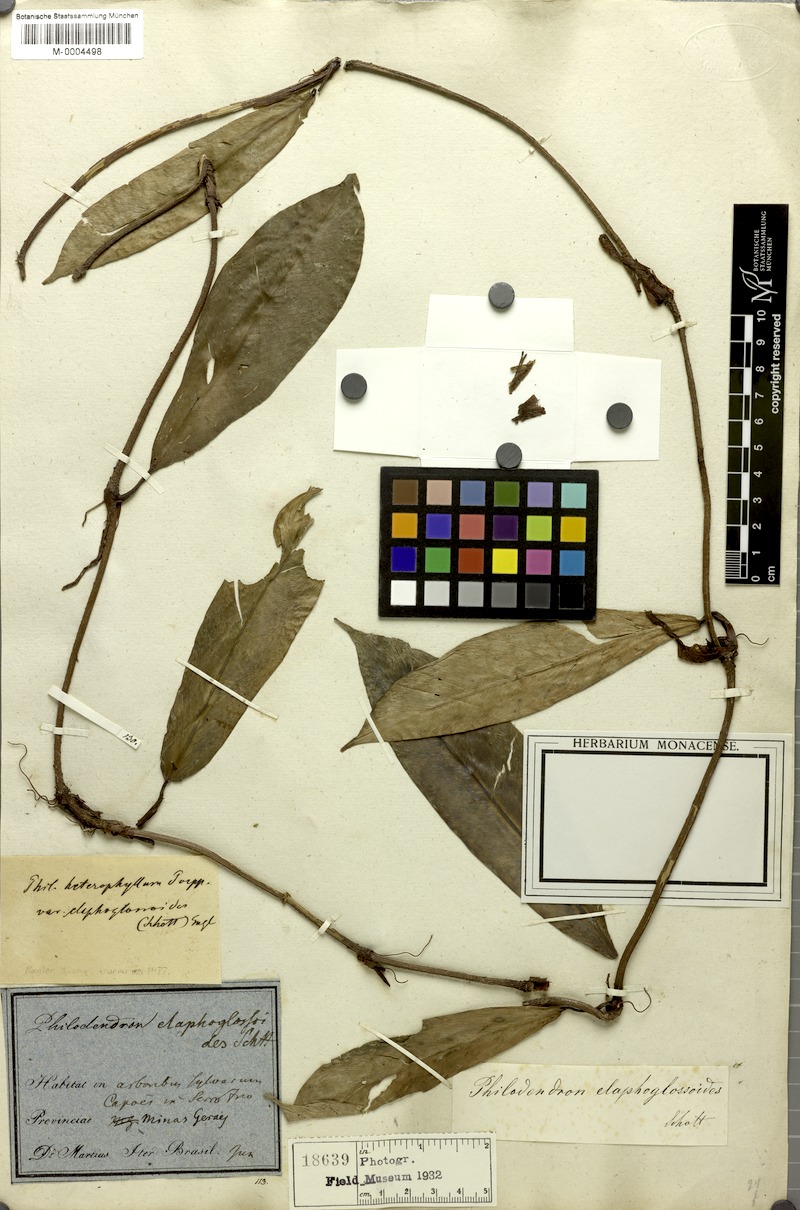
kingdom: Plantae
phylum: Tracheophyta
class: Liliopsida
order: Alismatales
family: Araceae
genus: Philodendron
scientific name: Philodendron elaphoglossoides
